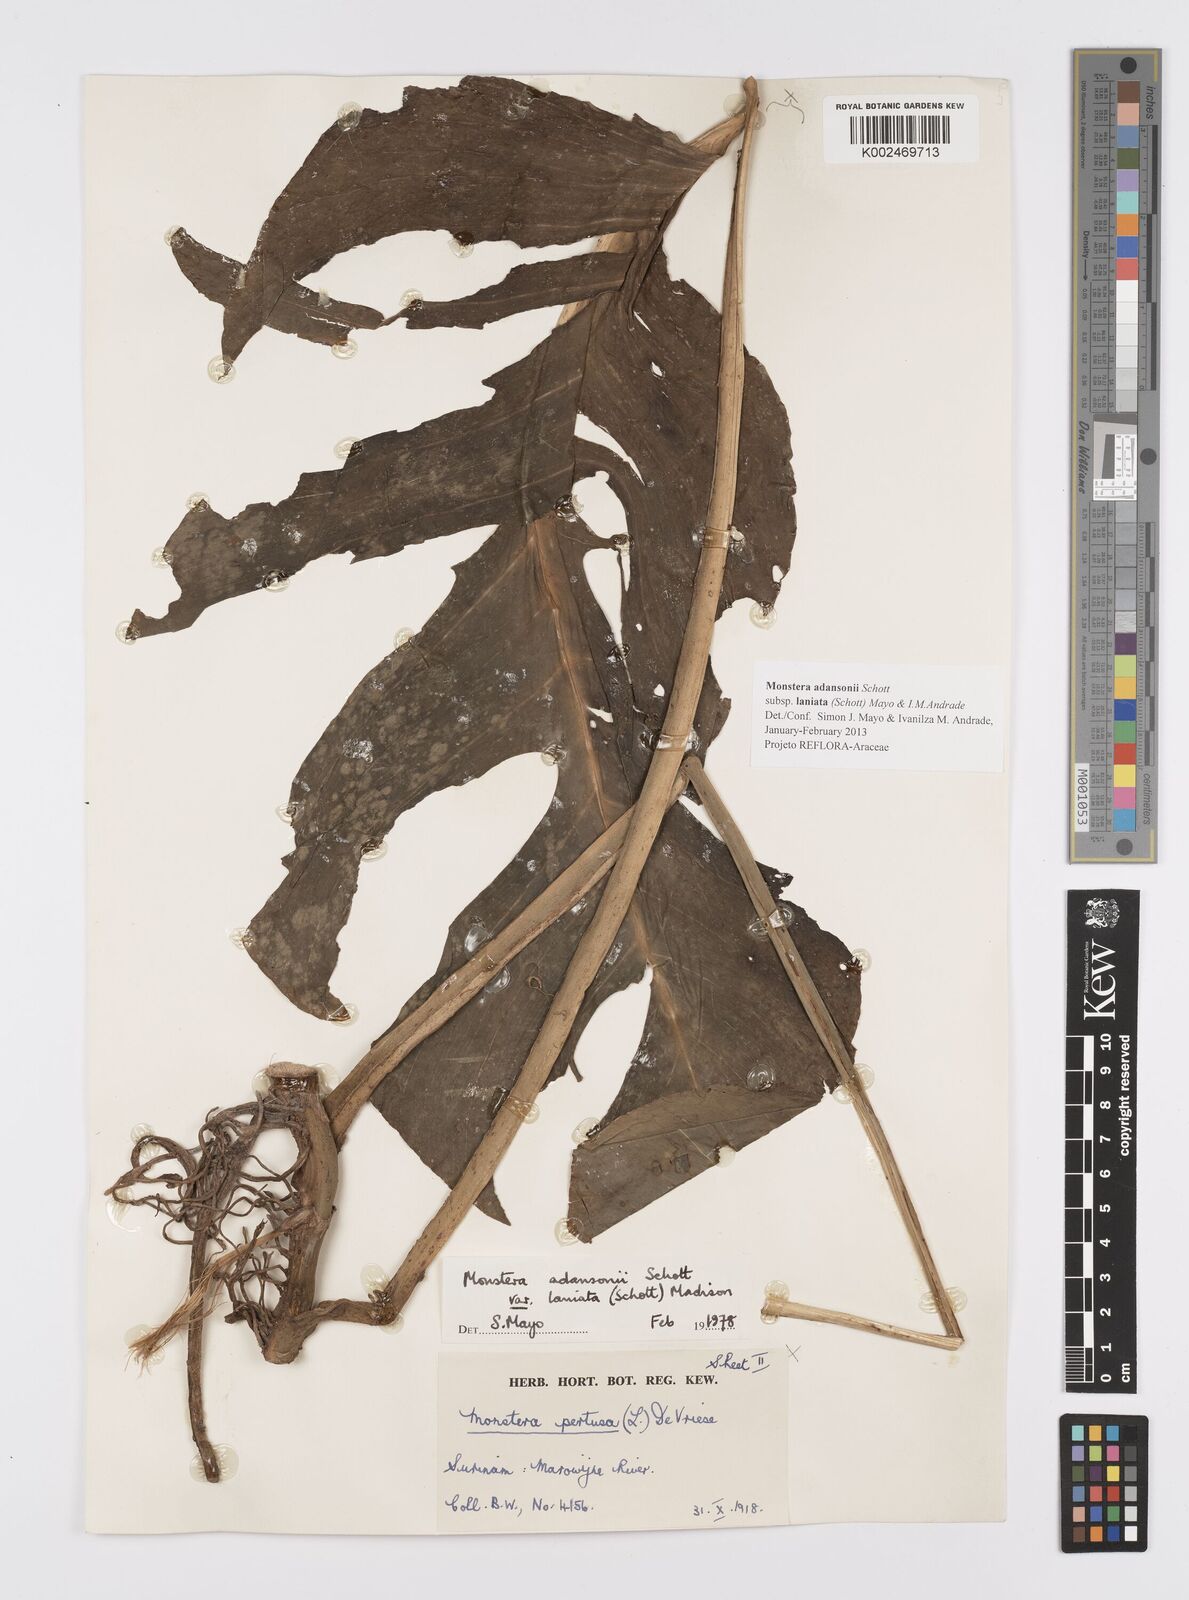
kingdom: Plantae
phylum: Tracheophyta
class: Liliopsida
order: Alismatales
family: Araceae
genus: Monstera
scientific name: Monstera adansonii
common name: Tarovine
